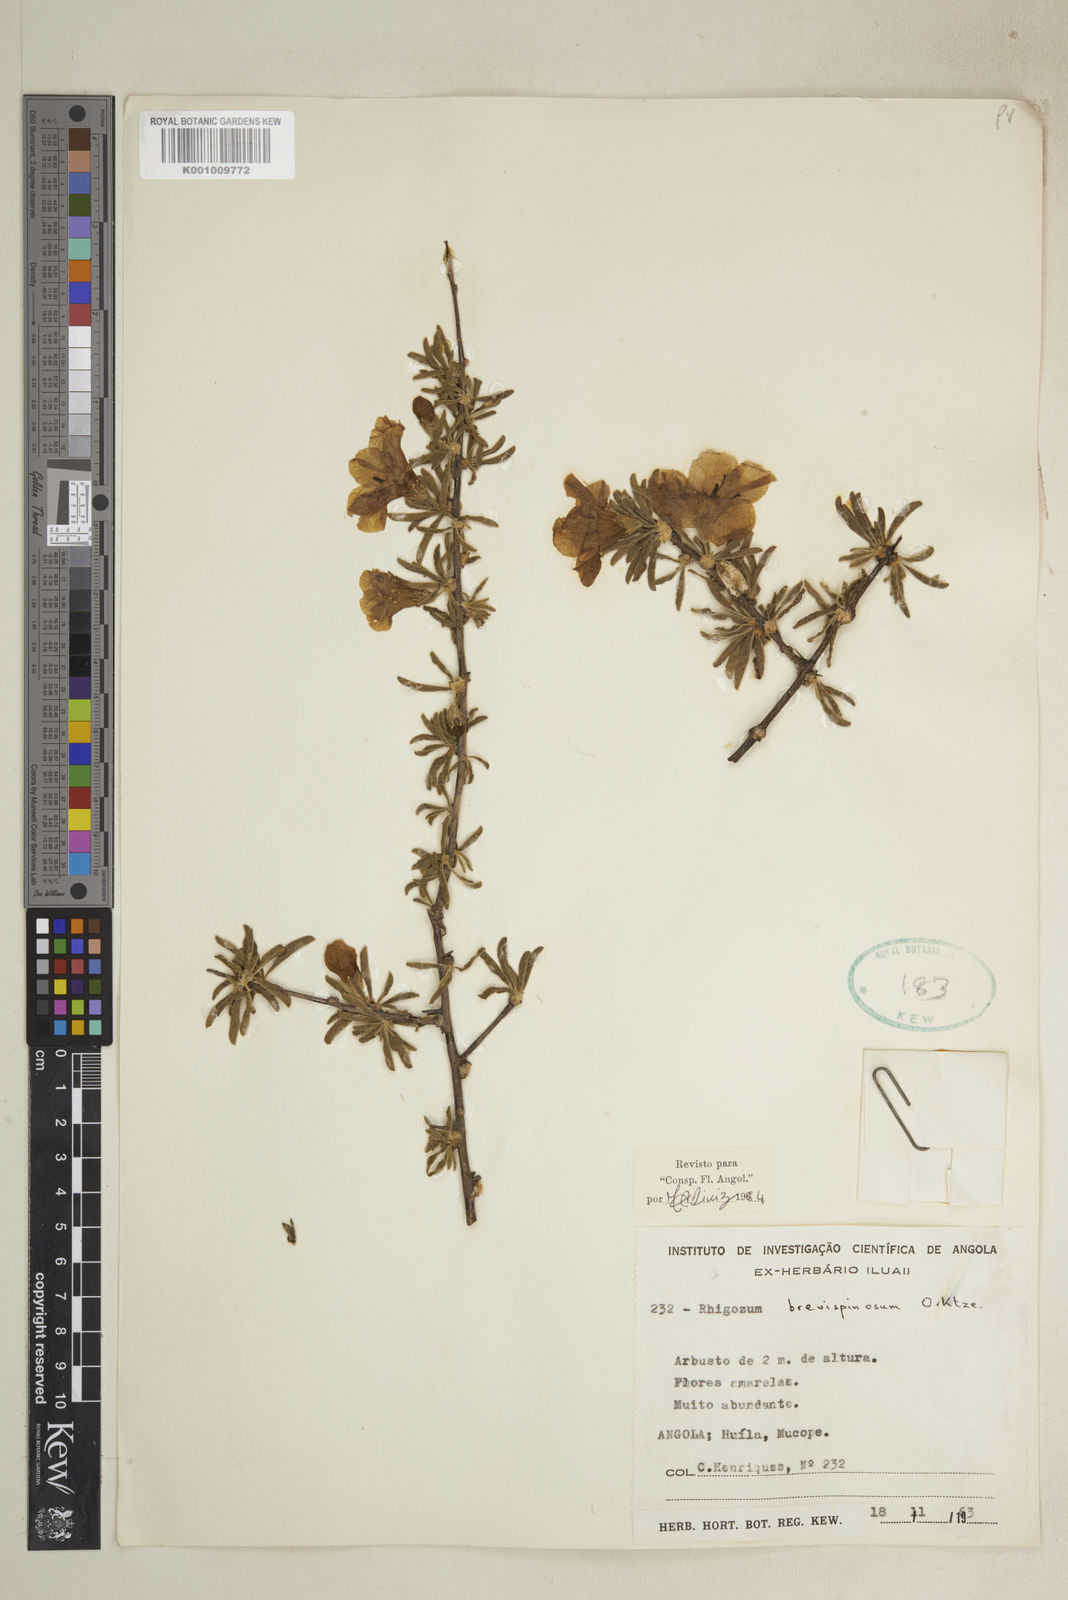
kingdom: Plantae
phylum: Tracheophyta
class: Magnoliopsida
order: Lamiales
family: Bignoniaceae
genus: Rhigozum
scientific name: Rhigozum brevispinosum
